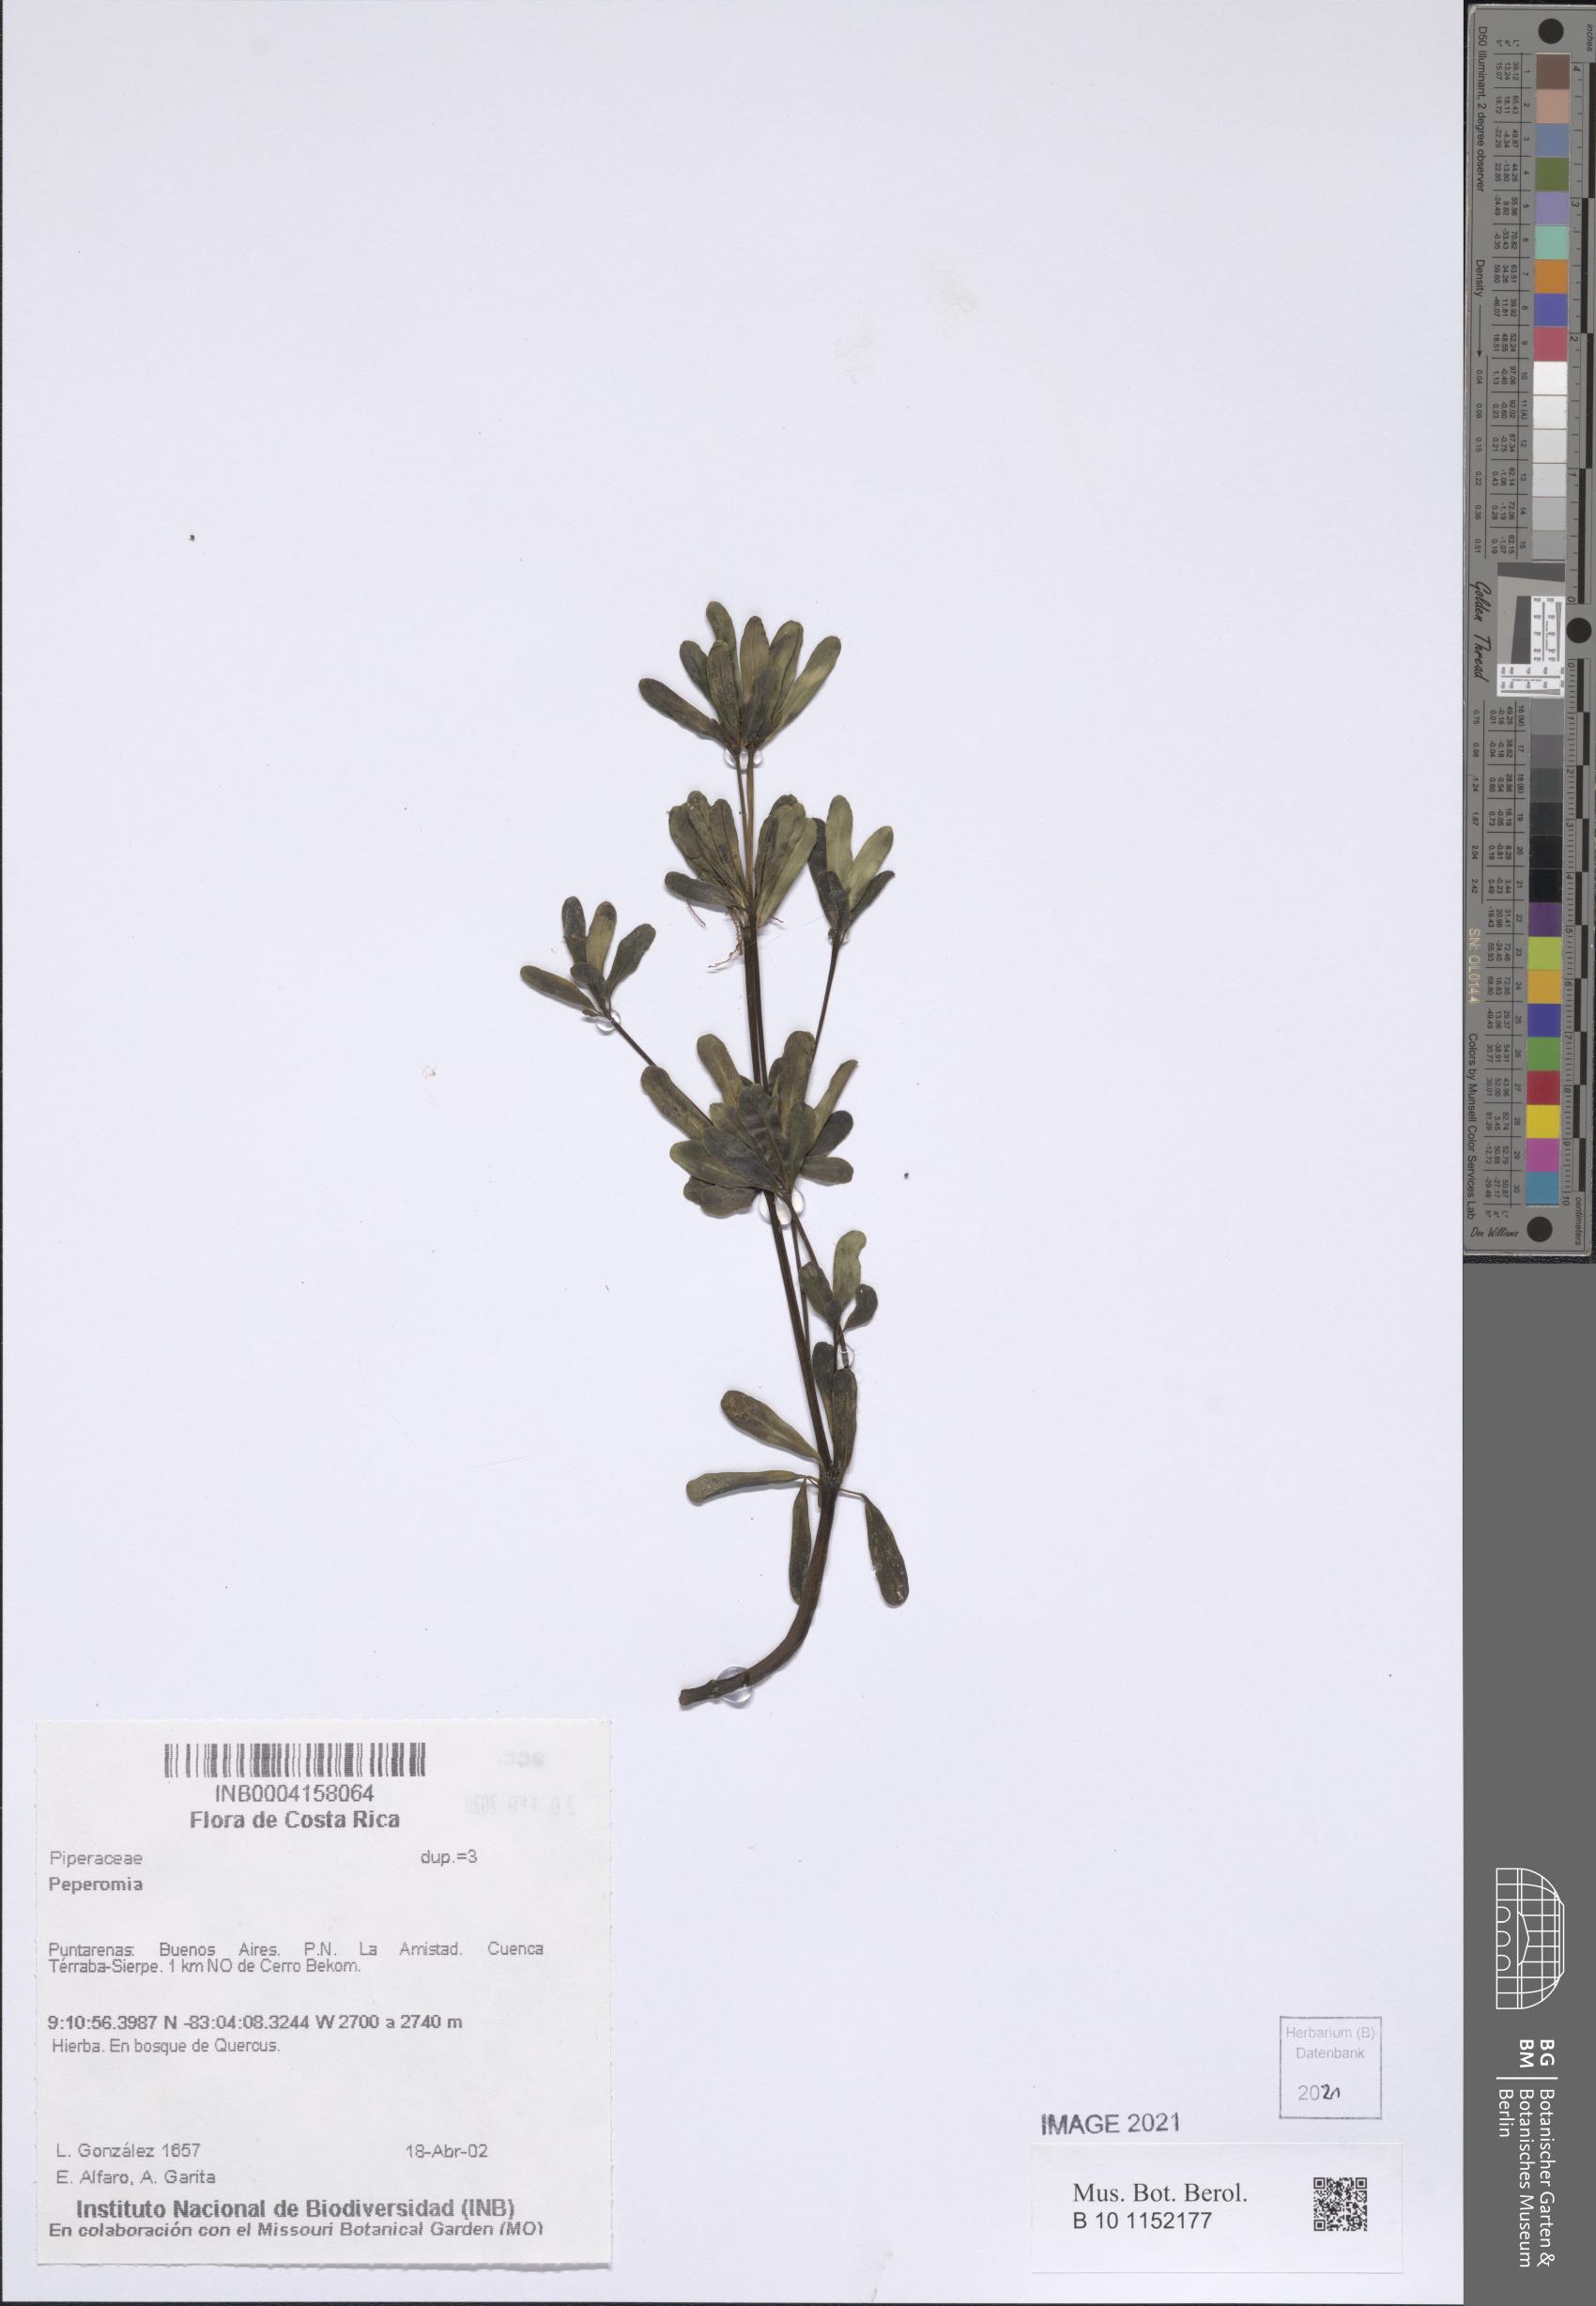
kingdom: Plantae
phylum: Tracheophyta
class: Magnoliopsida
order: Piperales
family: Piperaceae
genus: Peperomia
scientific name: Peperomia
